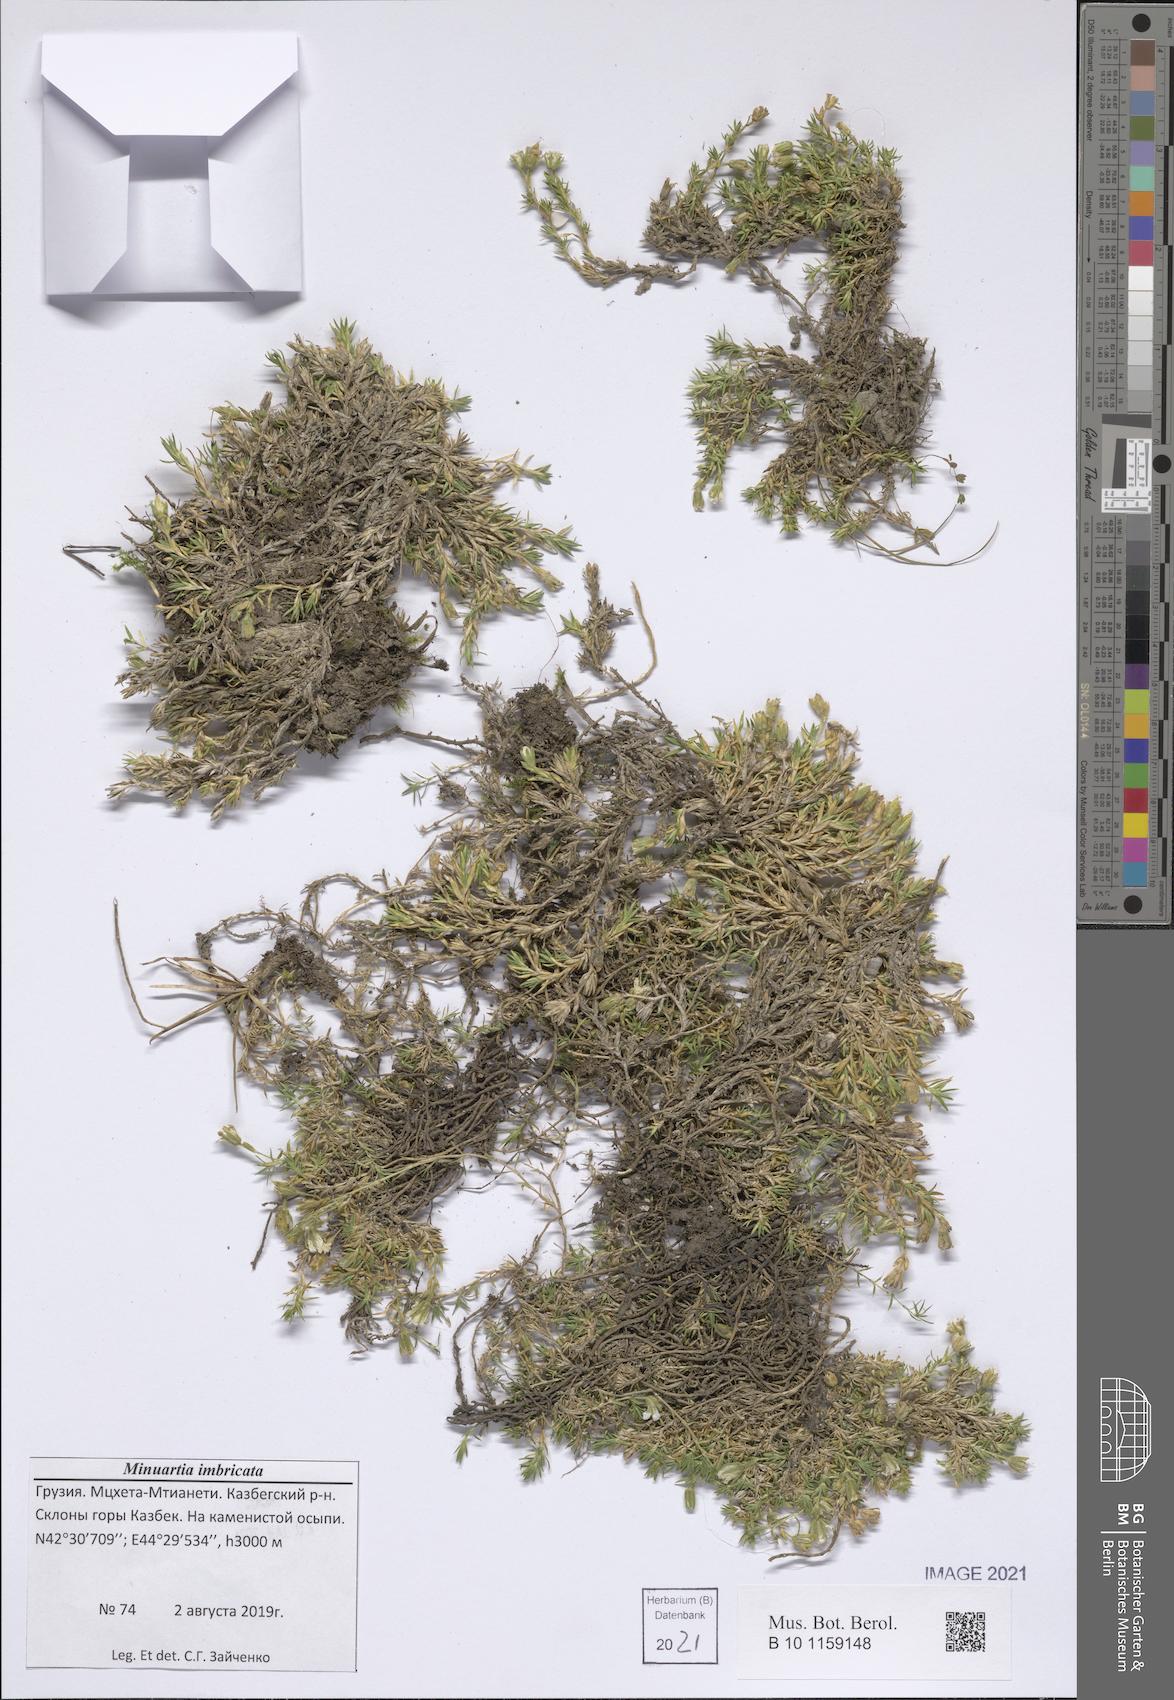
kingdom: Plantae
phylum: Tracheophyta
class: Magnoliopsida
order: Caryophyllales
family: Caryophyllaceae
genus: Pseudocherleria
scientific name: Pseudocherleria imbricata
